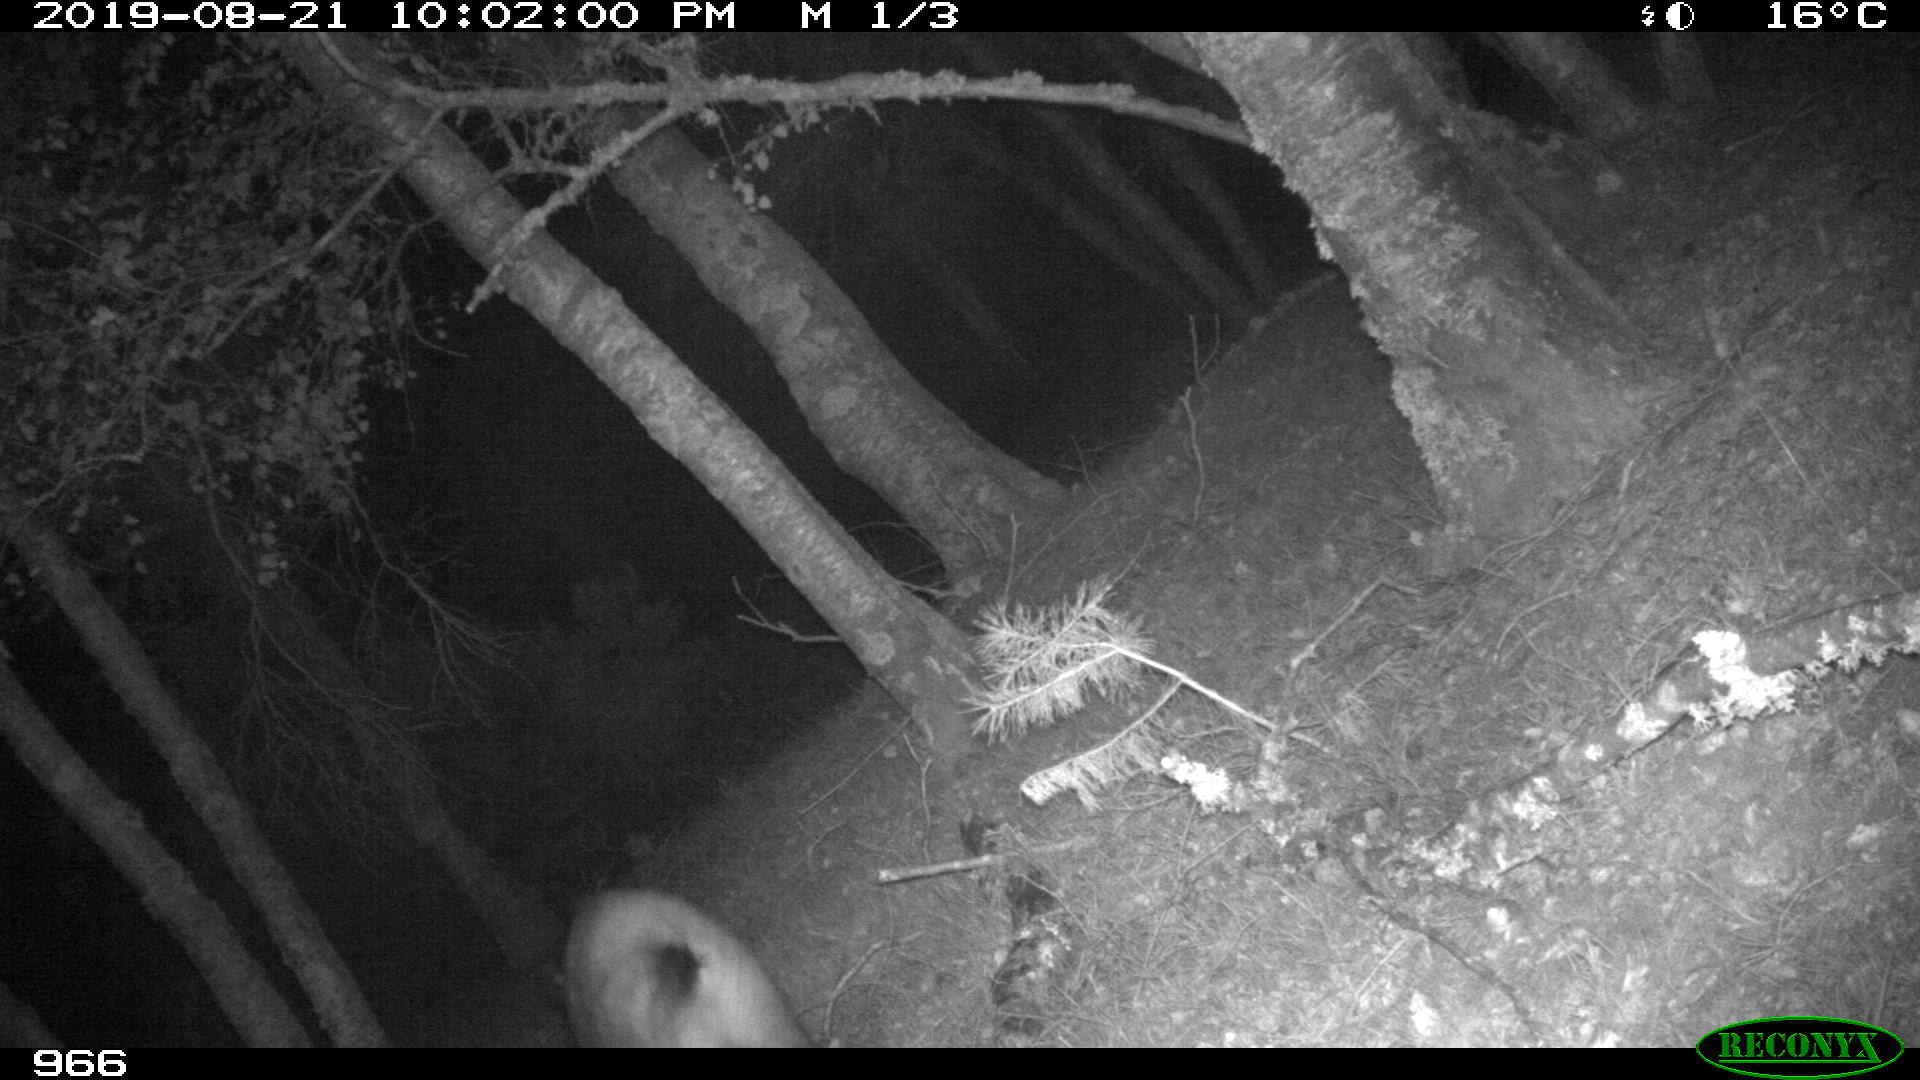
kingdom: Animalia
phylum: Chordata
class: Mammalia
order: Artiodactyla
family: Suidae
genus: Sus
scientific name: Sus scrofa
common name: Wild boar
